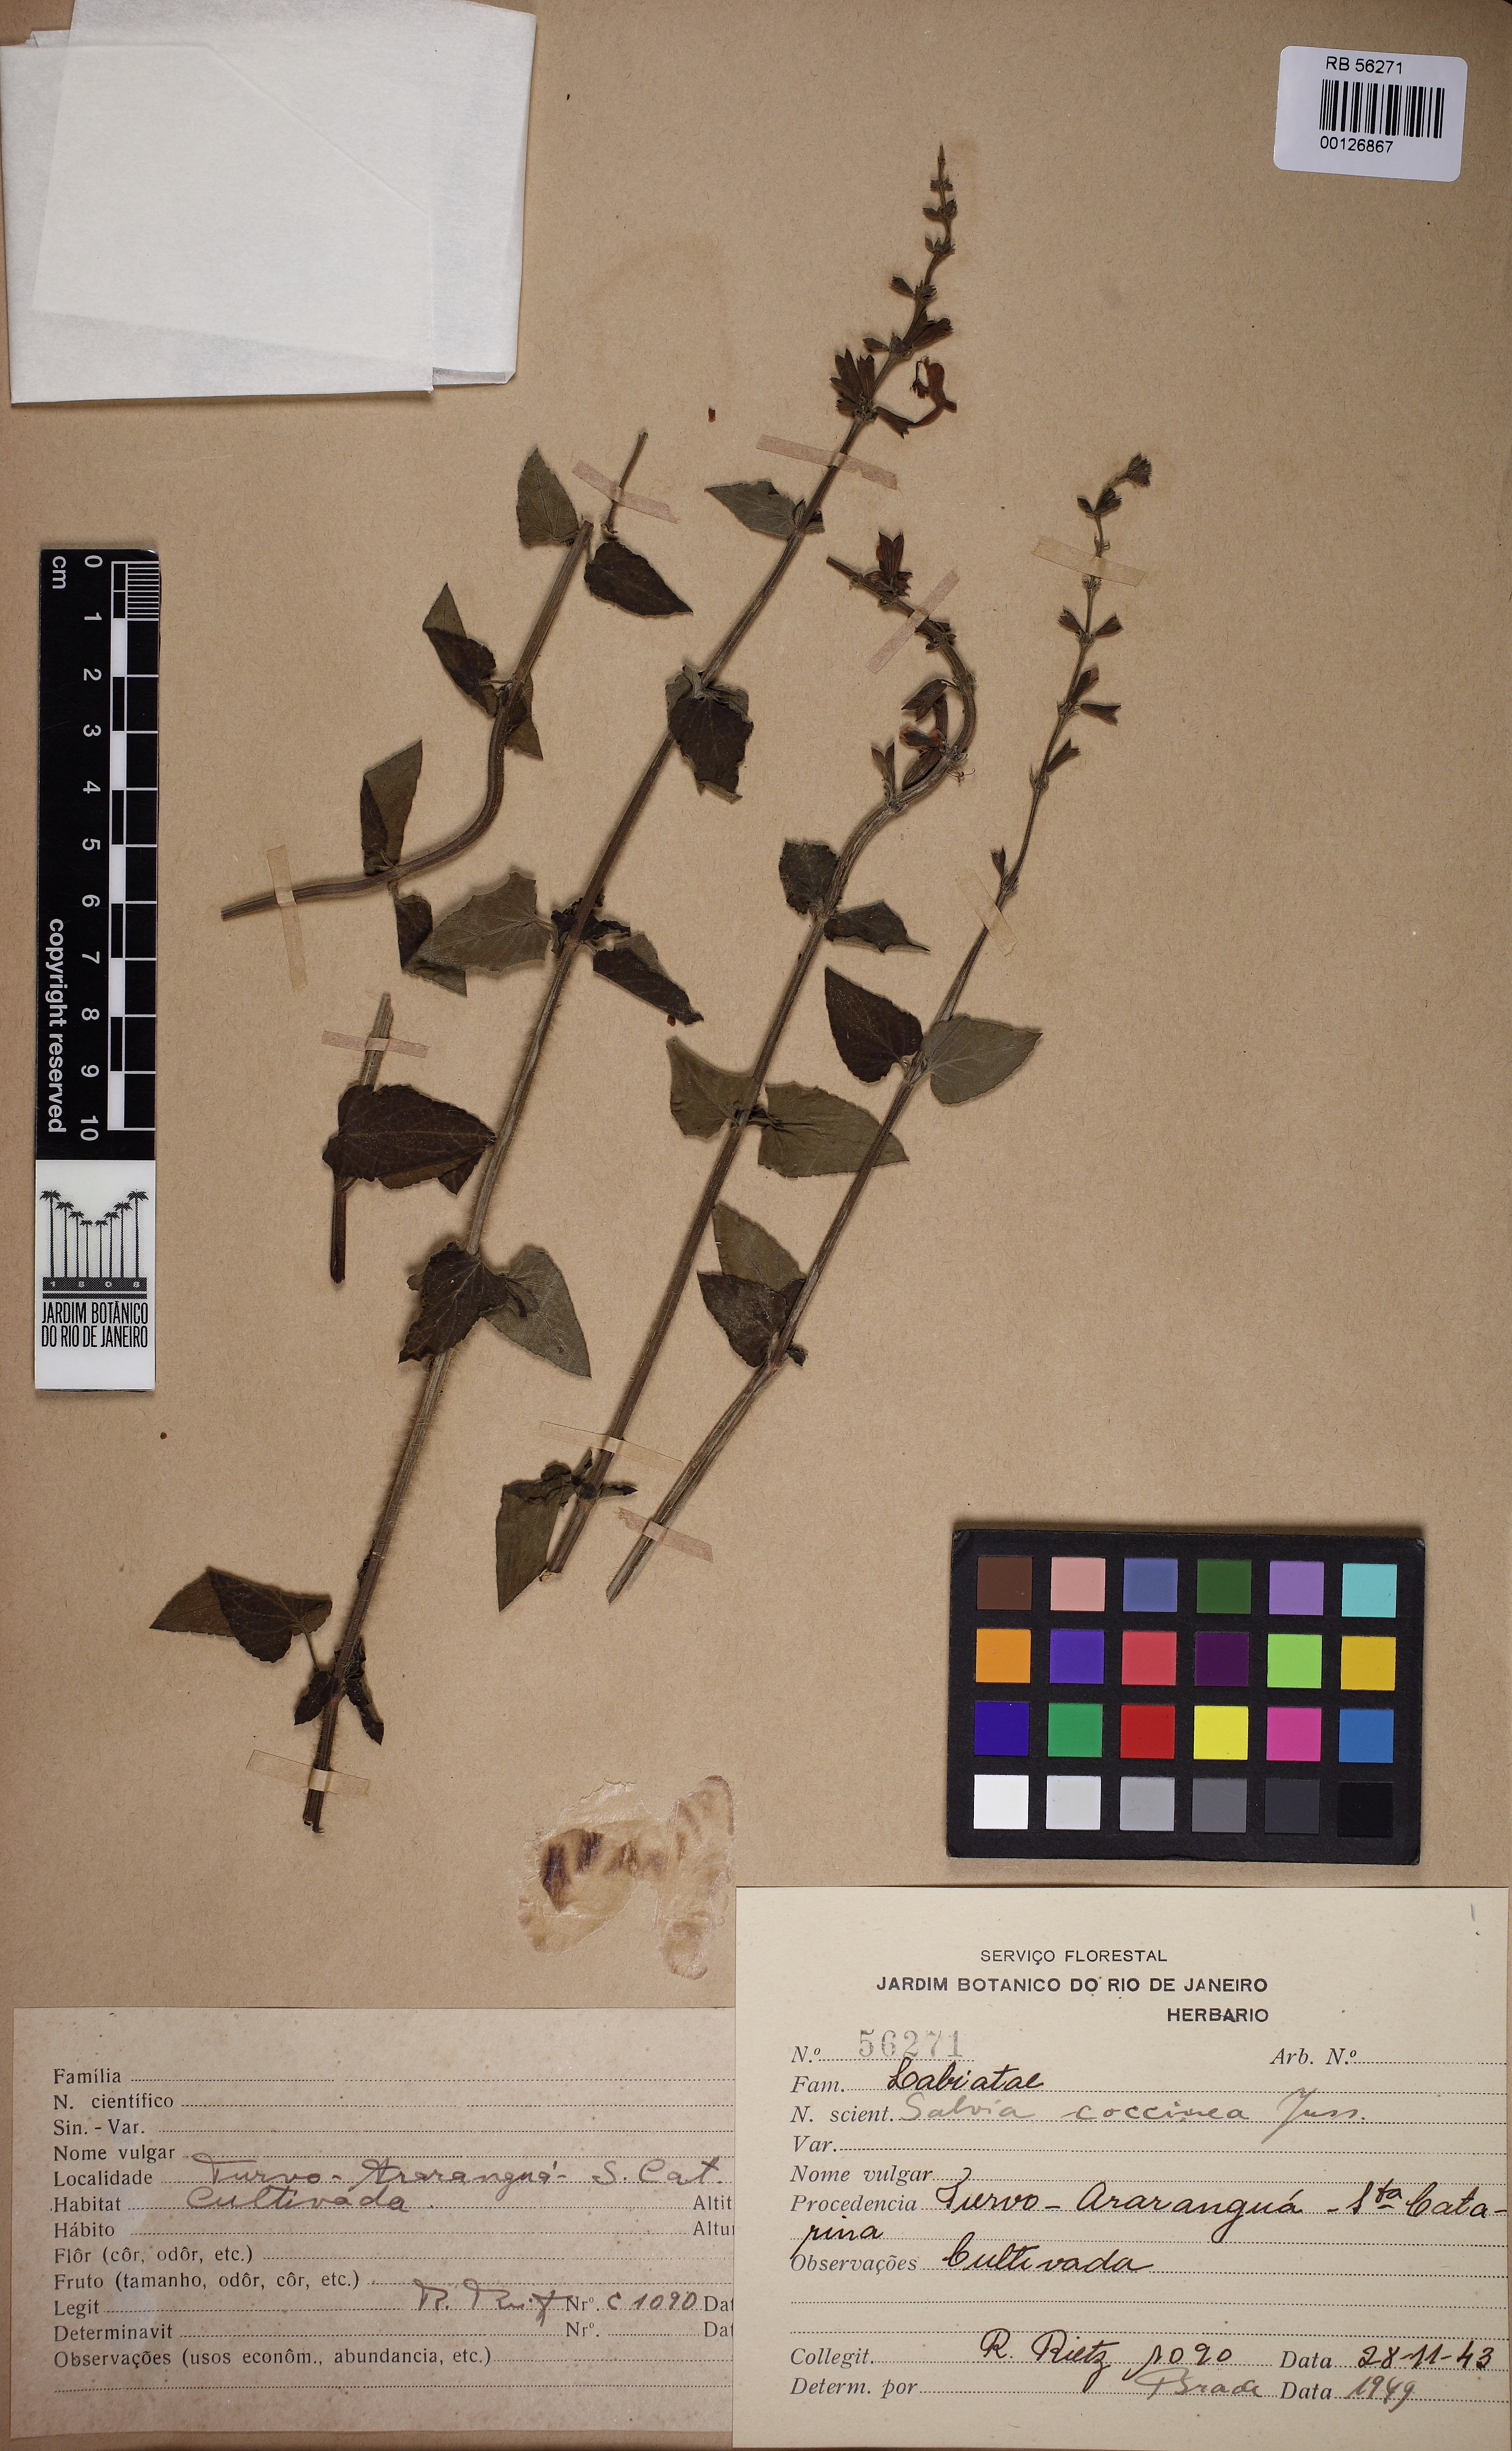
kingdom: Plantae
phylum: Tracheophyta
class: Magnoliopsida
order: Lamiales
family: Lamiaceae
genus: Salvia
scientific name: Salvia coccinea
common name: Blood sage
